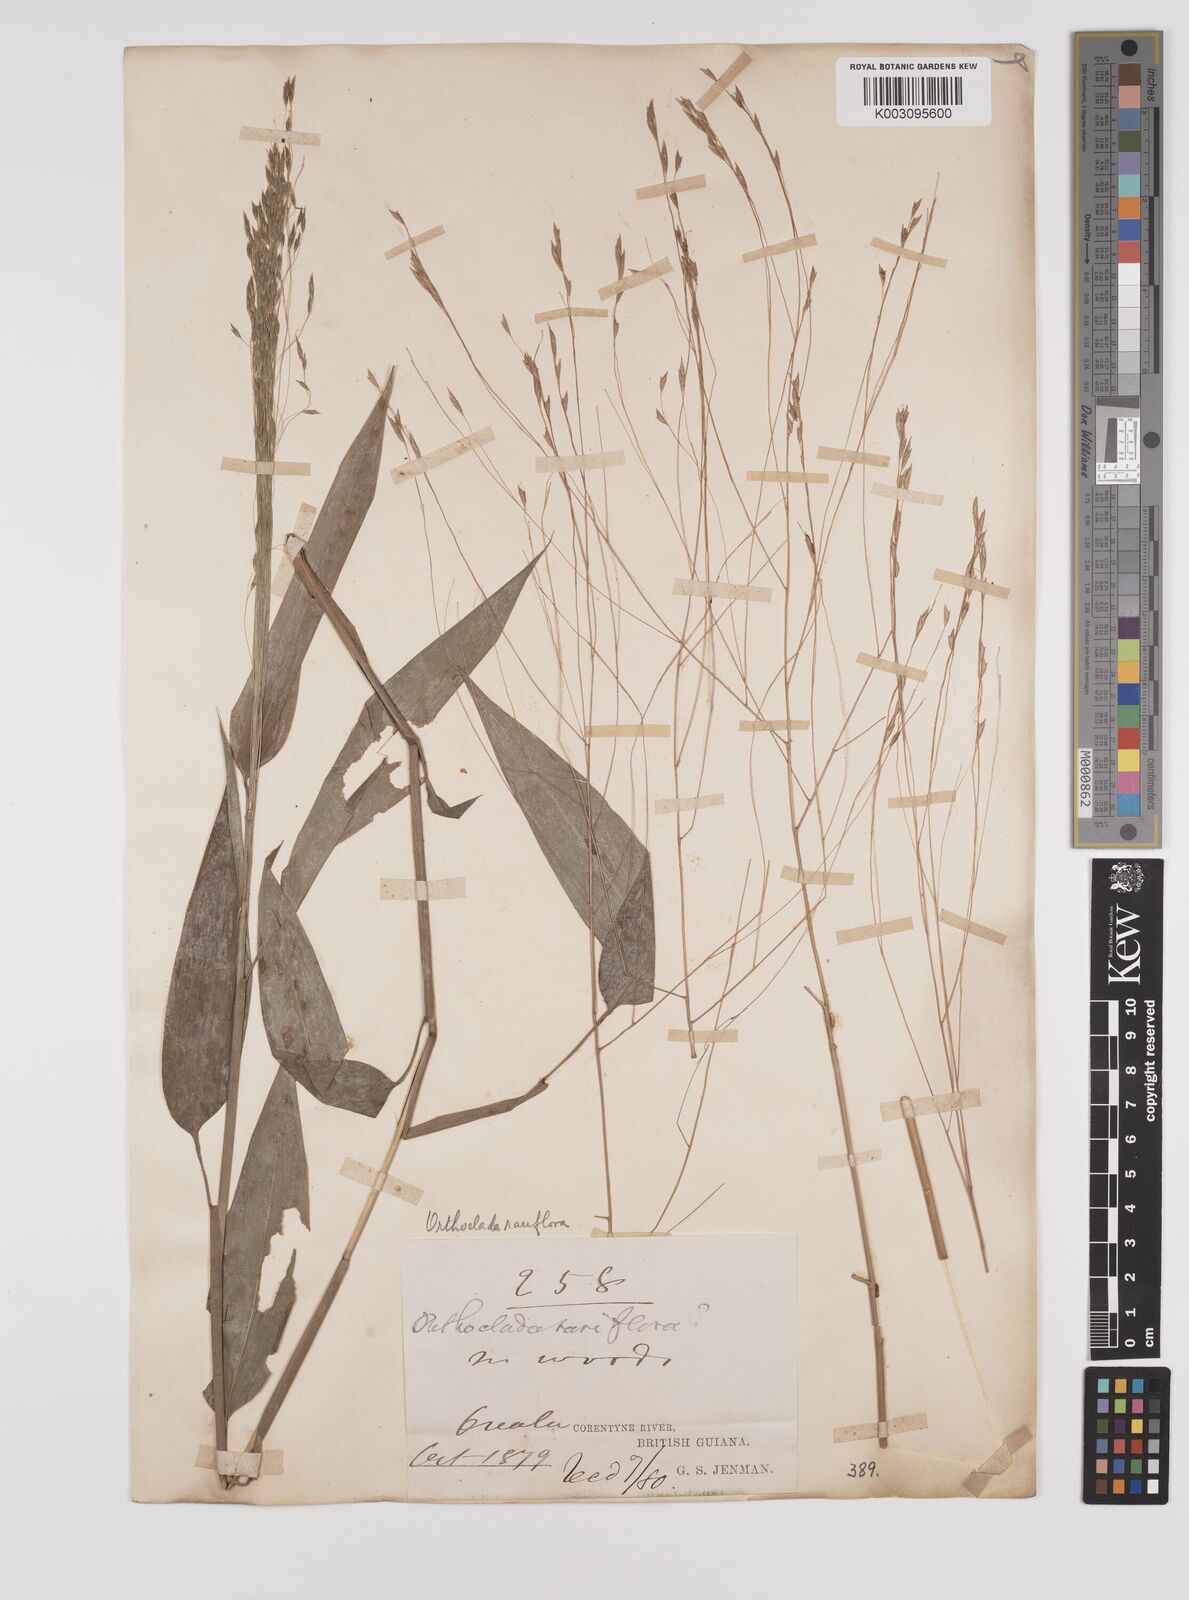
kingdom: Plantae
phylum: Tracheophyta
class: Liliopsida
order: Poales
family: Poaceae
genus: Orthoclada
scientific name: Orthoclada laxa
